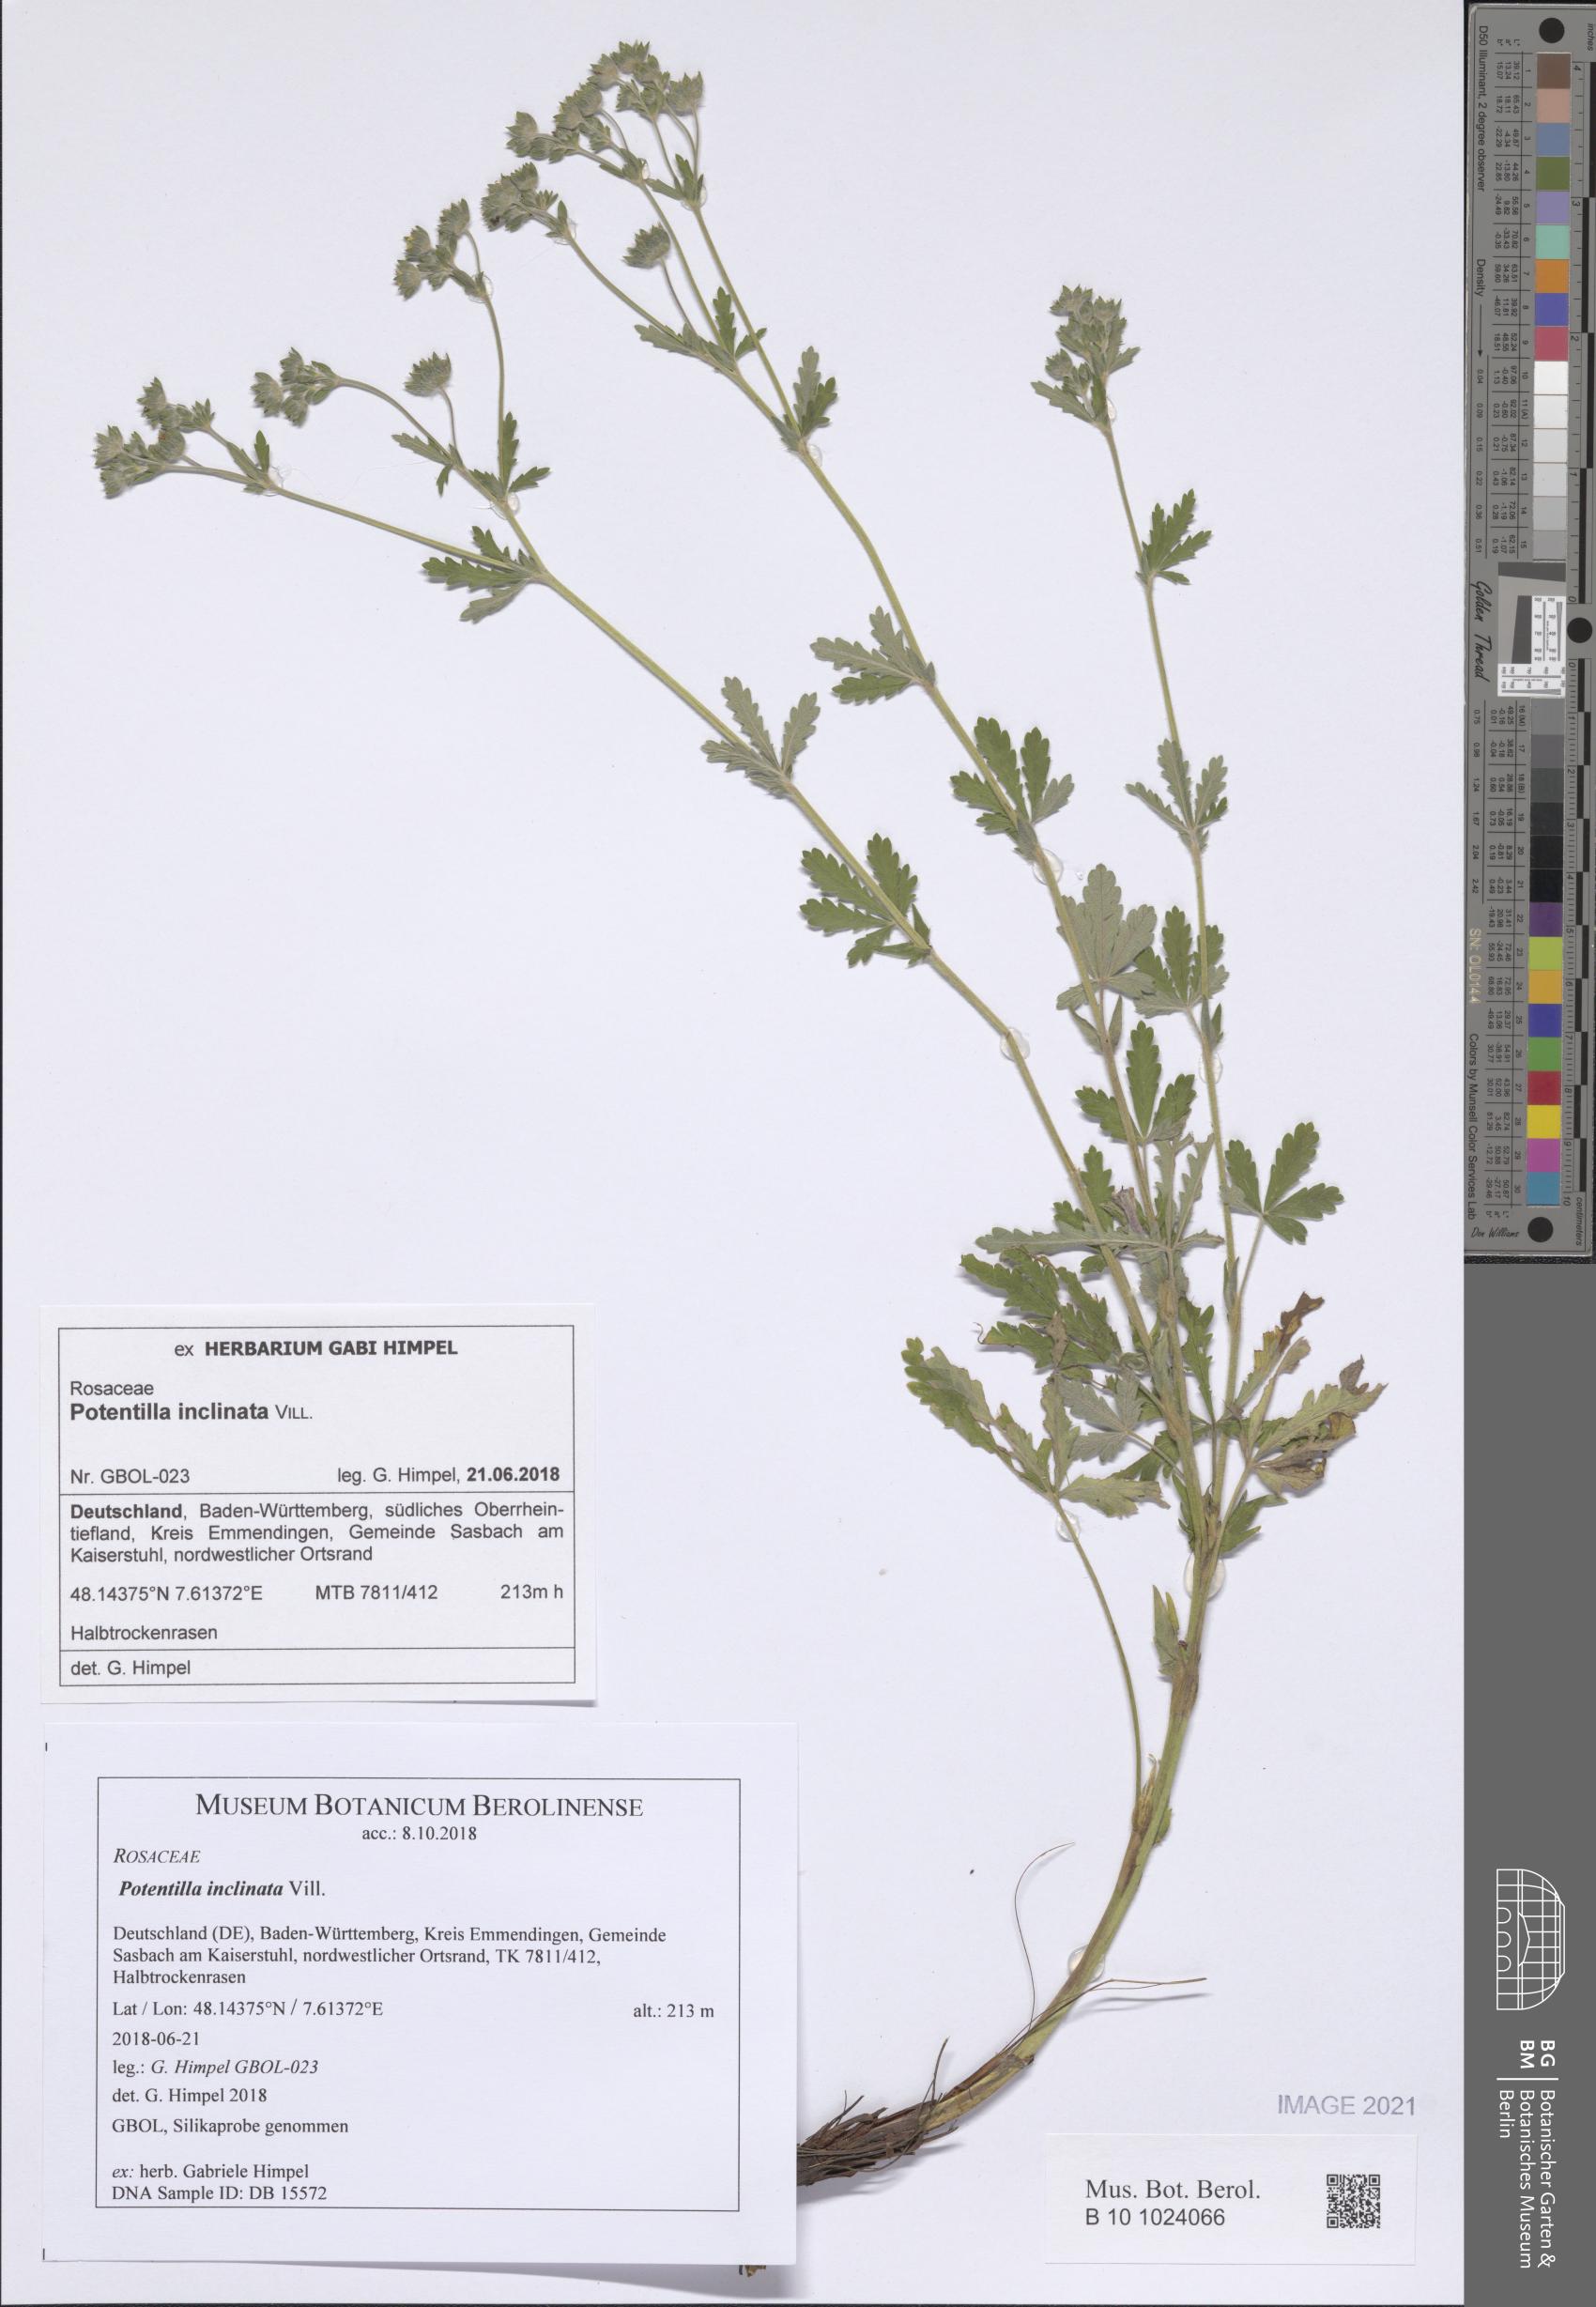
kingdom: Plantae
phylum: Tracheophyta
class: Magnoliopsida
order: Rosales
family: Rosaceae
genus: Potentilla
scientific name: Potentilla inclinata
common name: Grey cinquefoil
